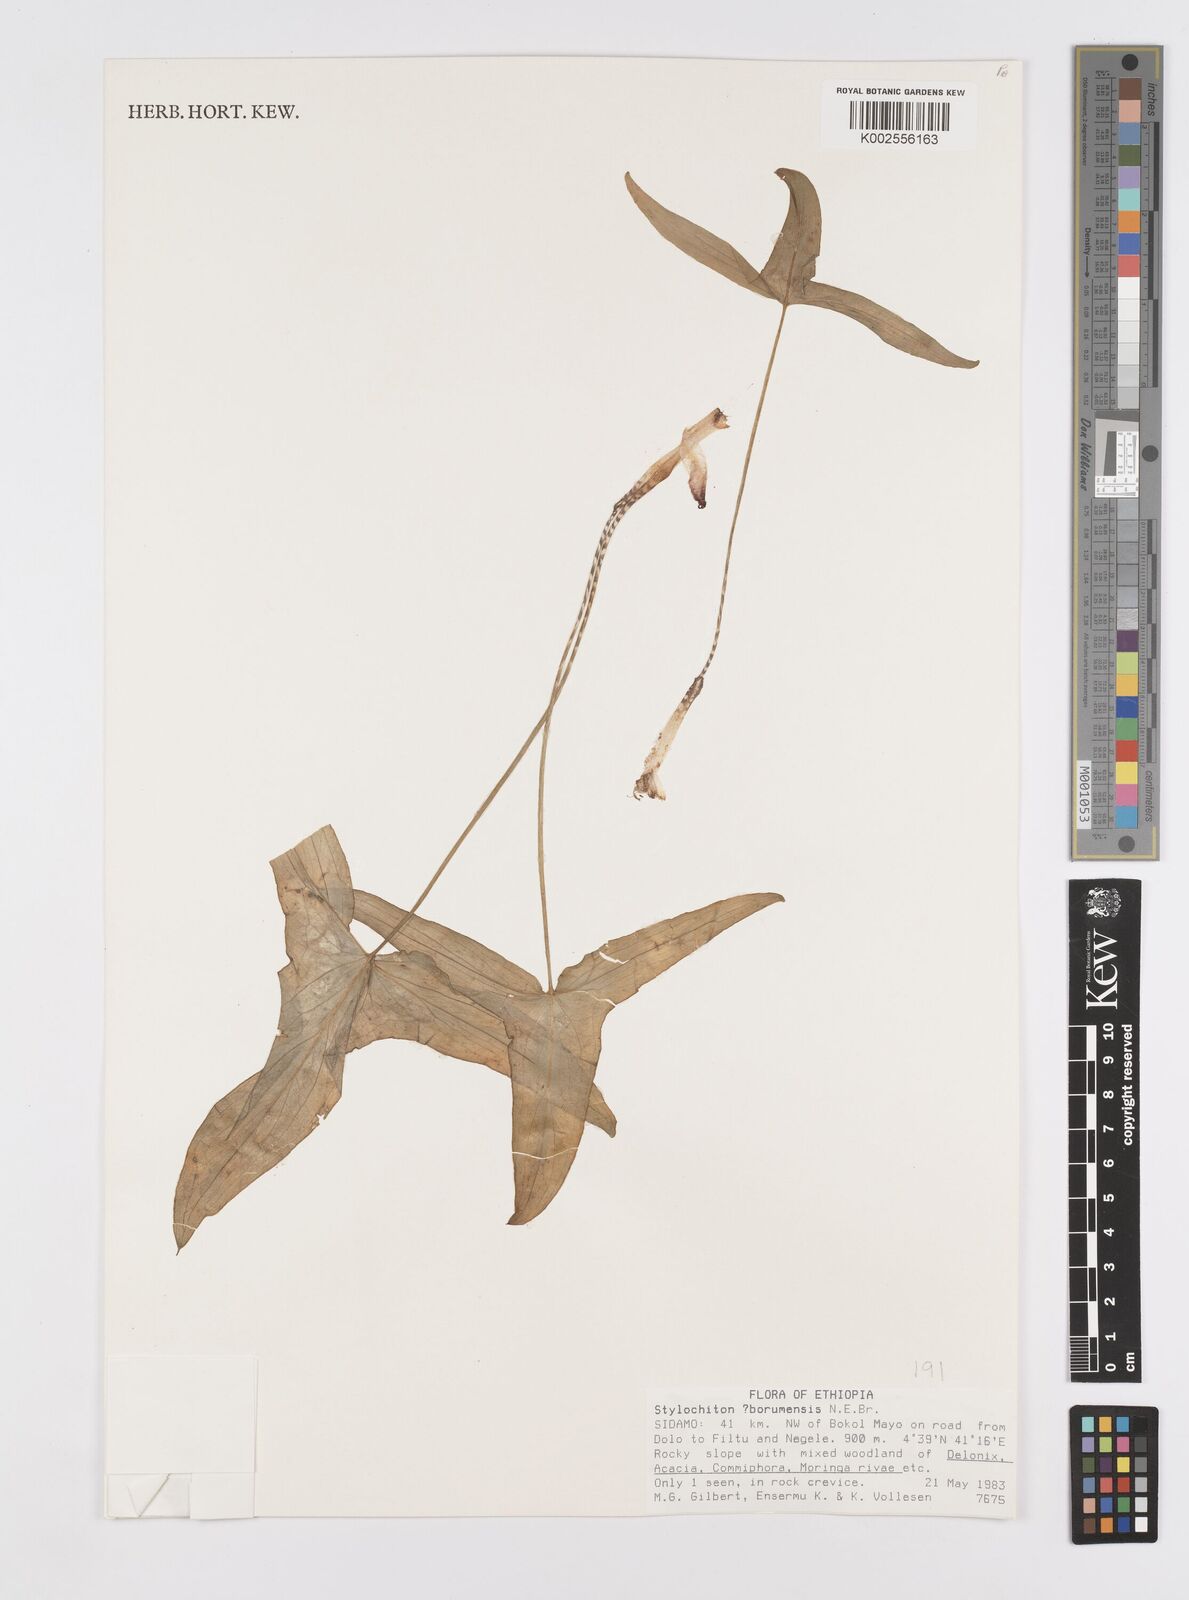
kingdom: Plantae
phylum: Tracheophyta
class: Liliopsida
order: Alismatales
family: Araceae
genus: Stylochaeton
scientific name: Stylochaeton borumense
